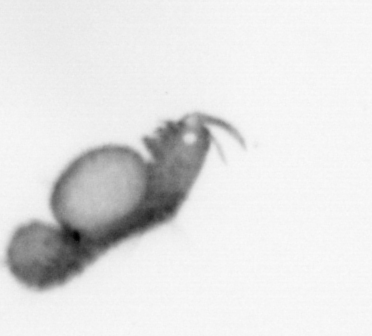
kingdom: Animalia
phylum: Annelida
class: Polychaeta
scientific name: Polychaeta
